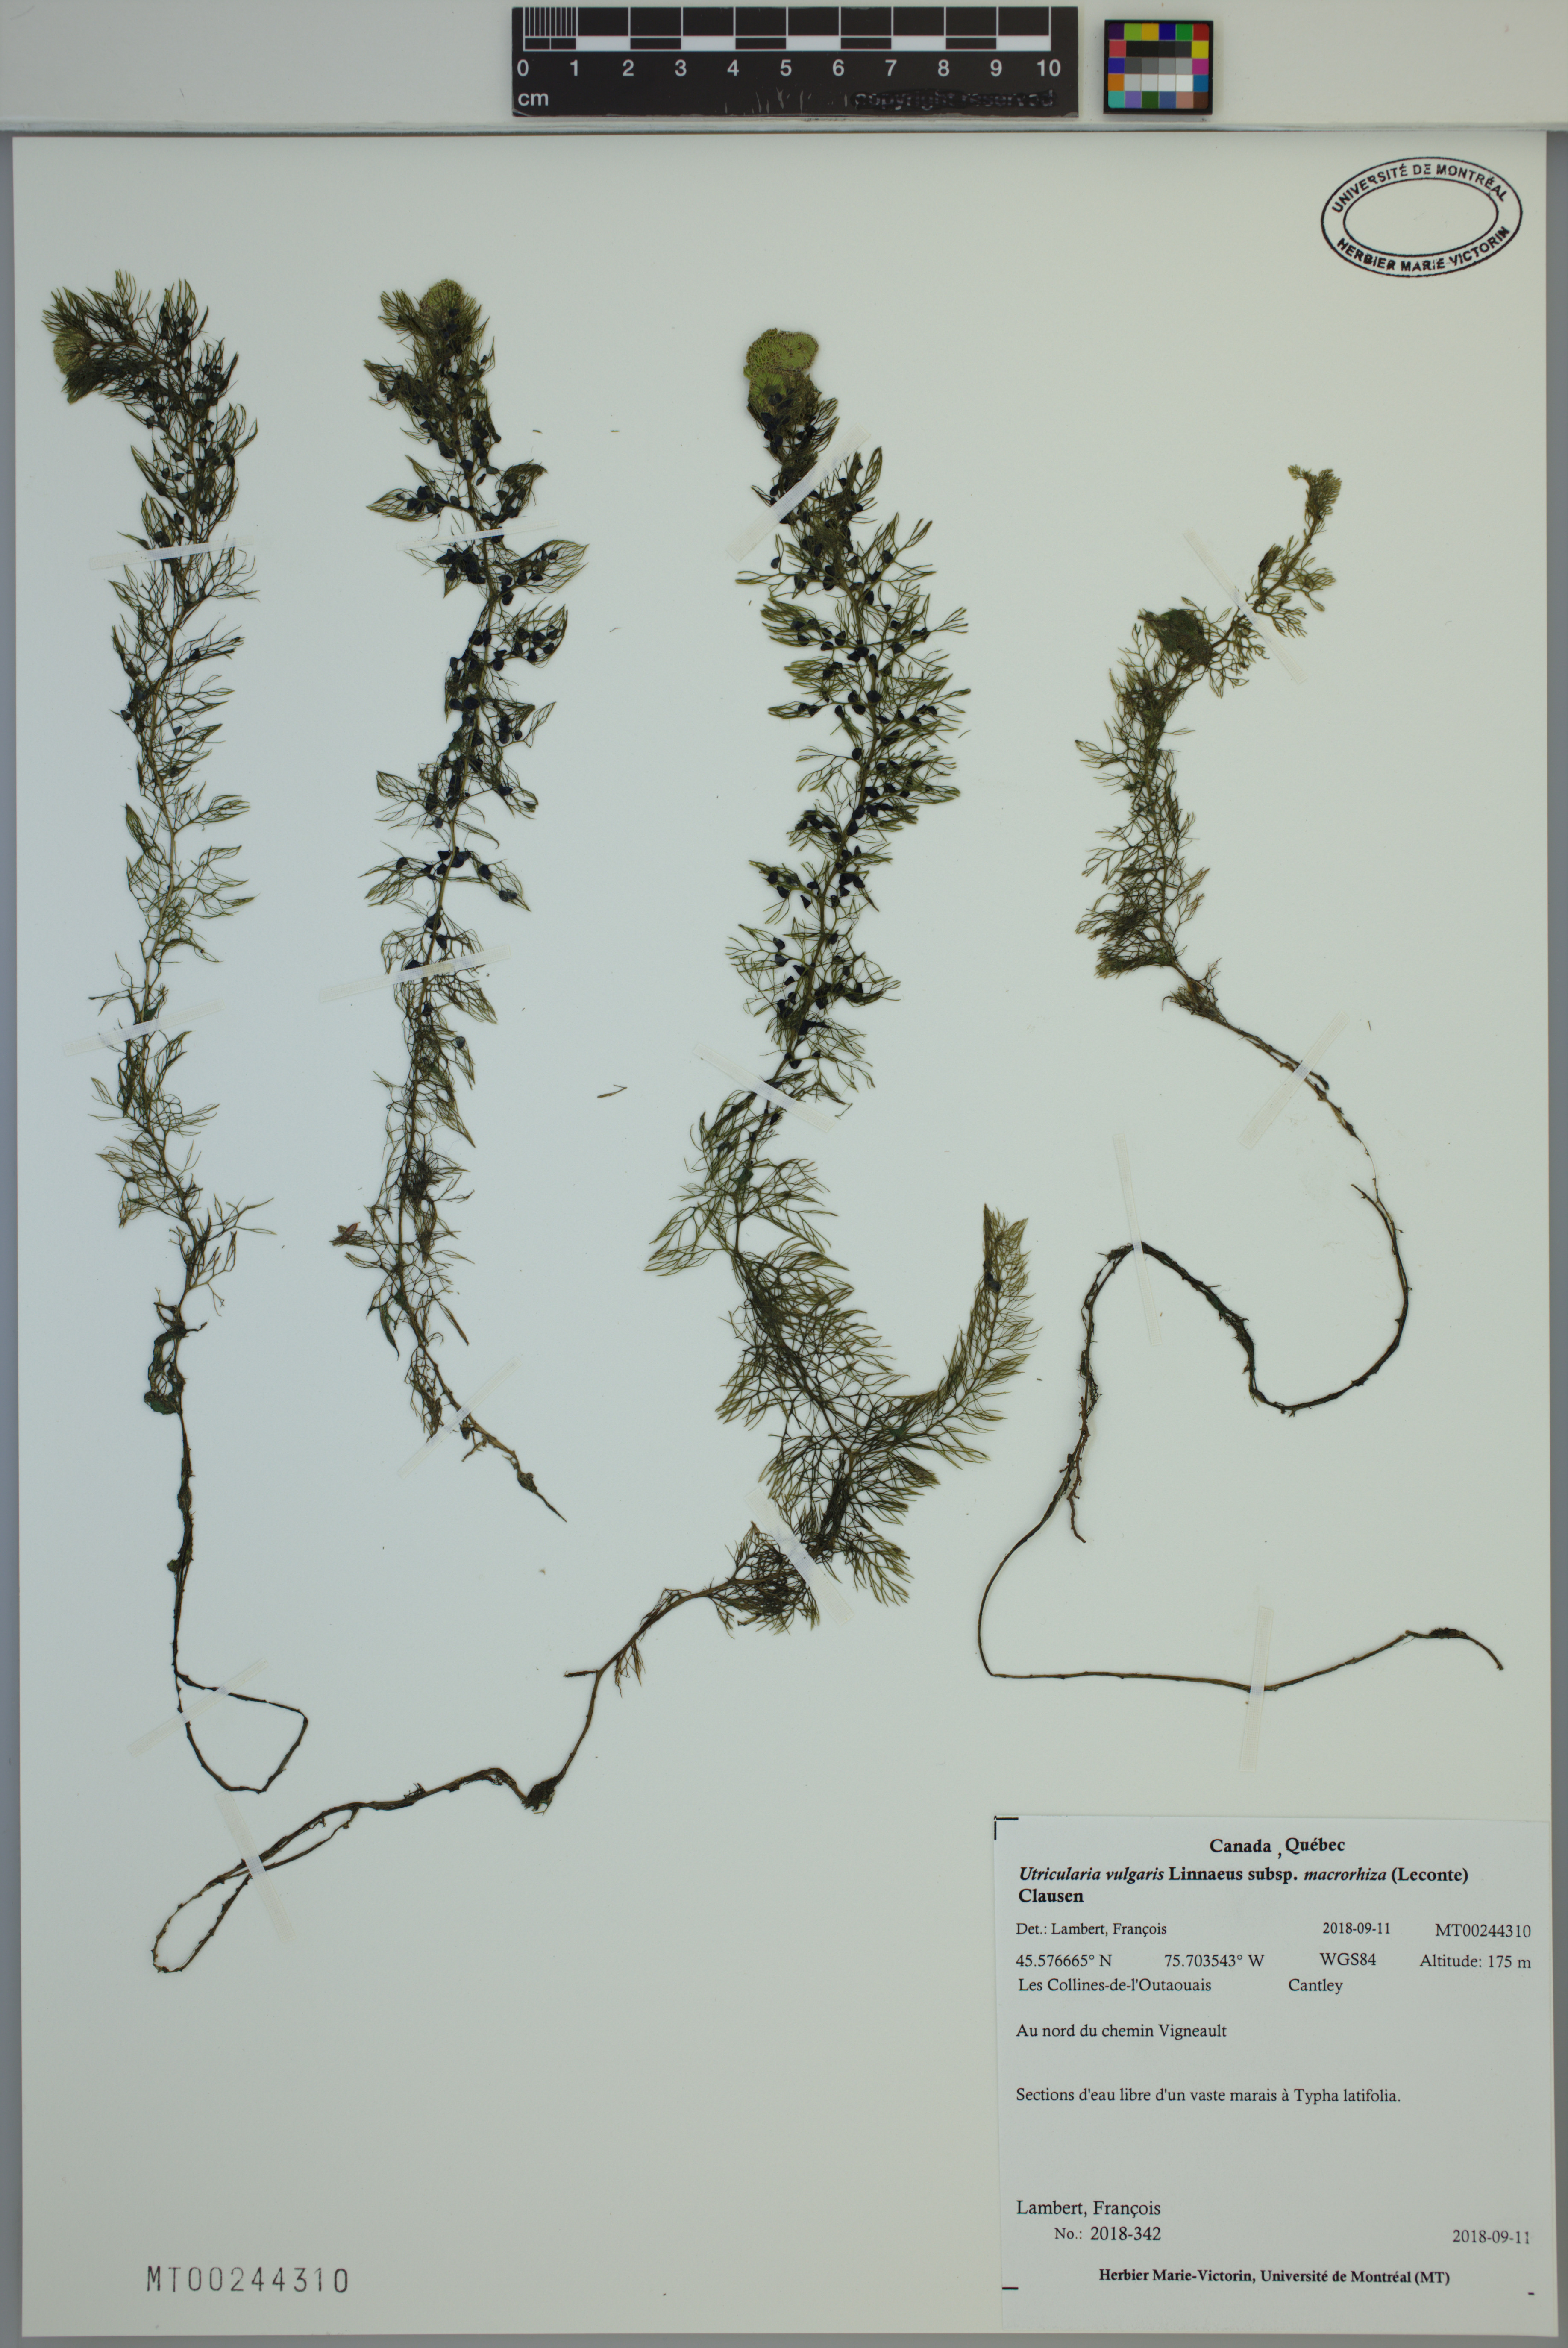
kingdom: Plantae
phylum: Tracheophyta
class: Magnoliopsida
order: Lamiales
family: Lentibulariaceae
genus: Utricularia
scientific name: Utricularia macrorhiza
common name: Common bladderwort
